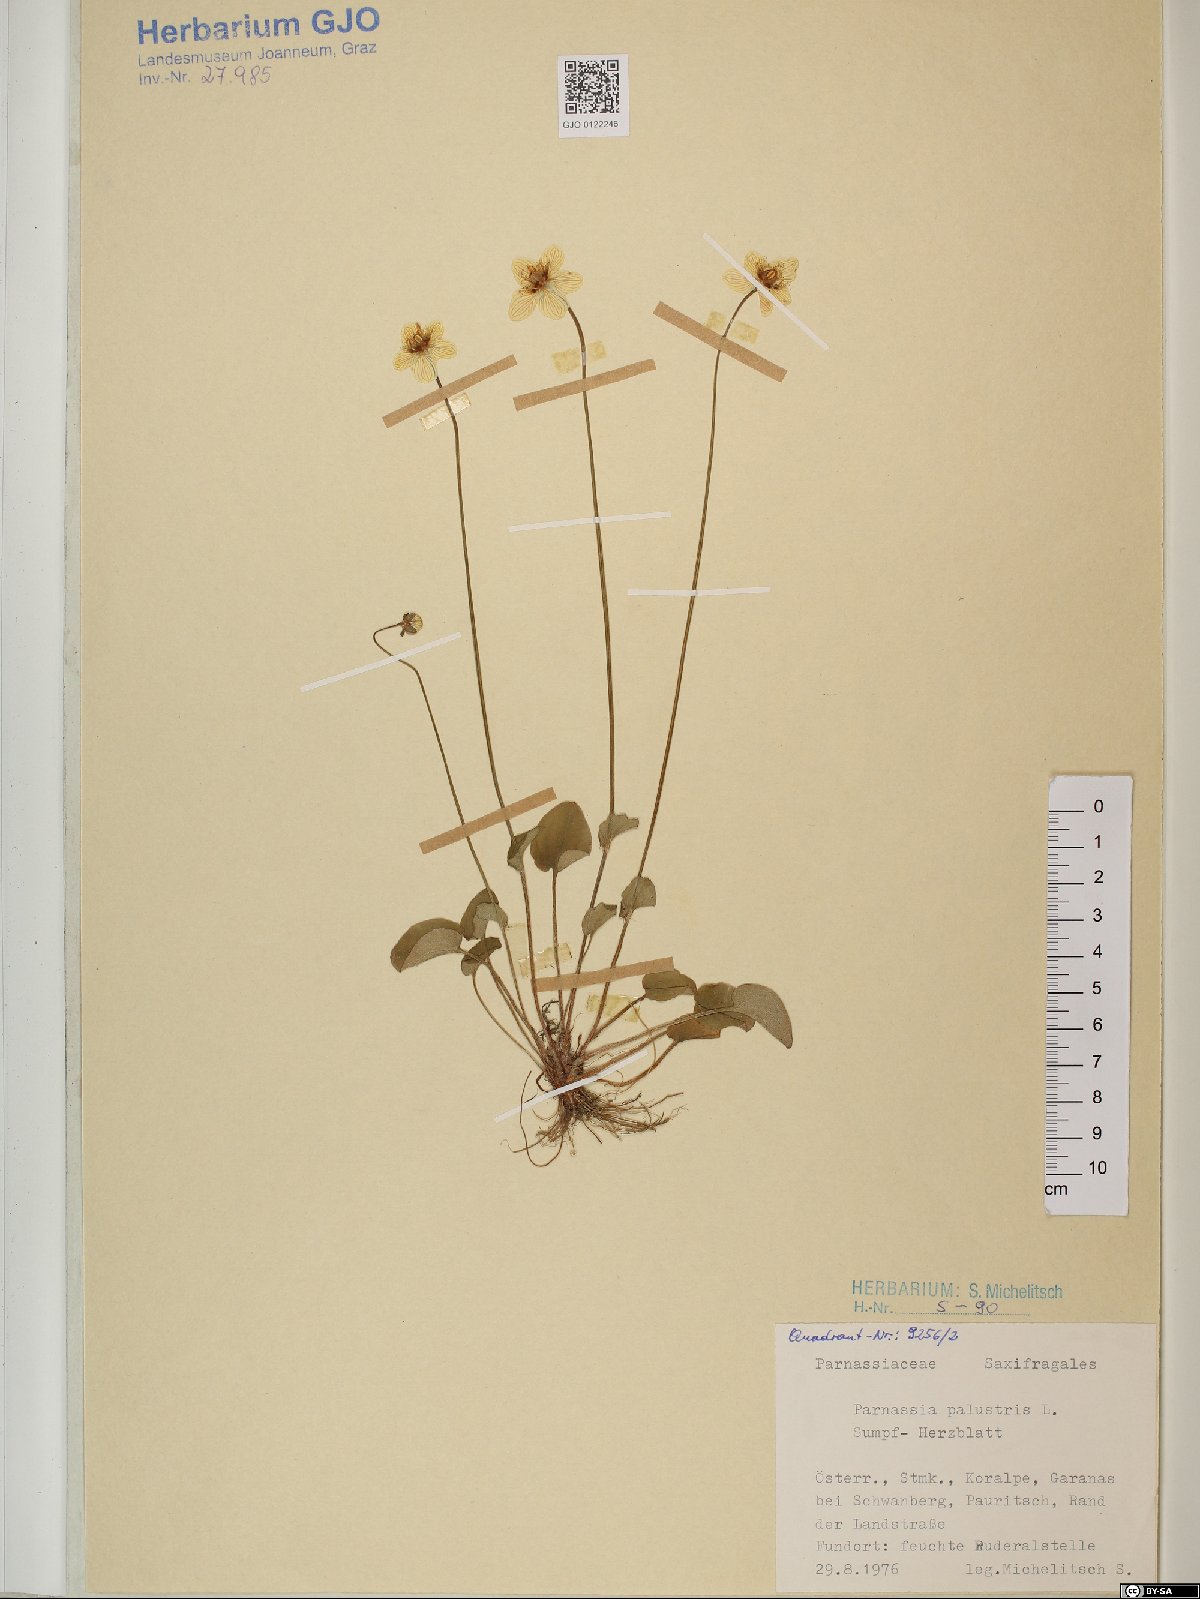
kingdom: Plantae
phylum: Tracheophyta
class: Magnoliopsida
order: Celastrales
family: Parnassiaceae
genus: Parnassia
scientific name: Parnassia palustris
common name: Grass-of-parnassus
